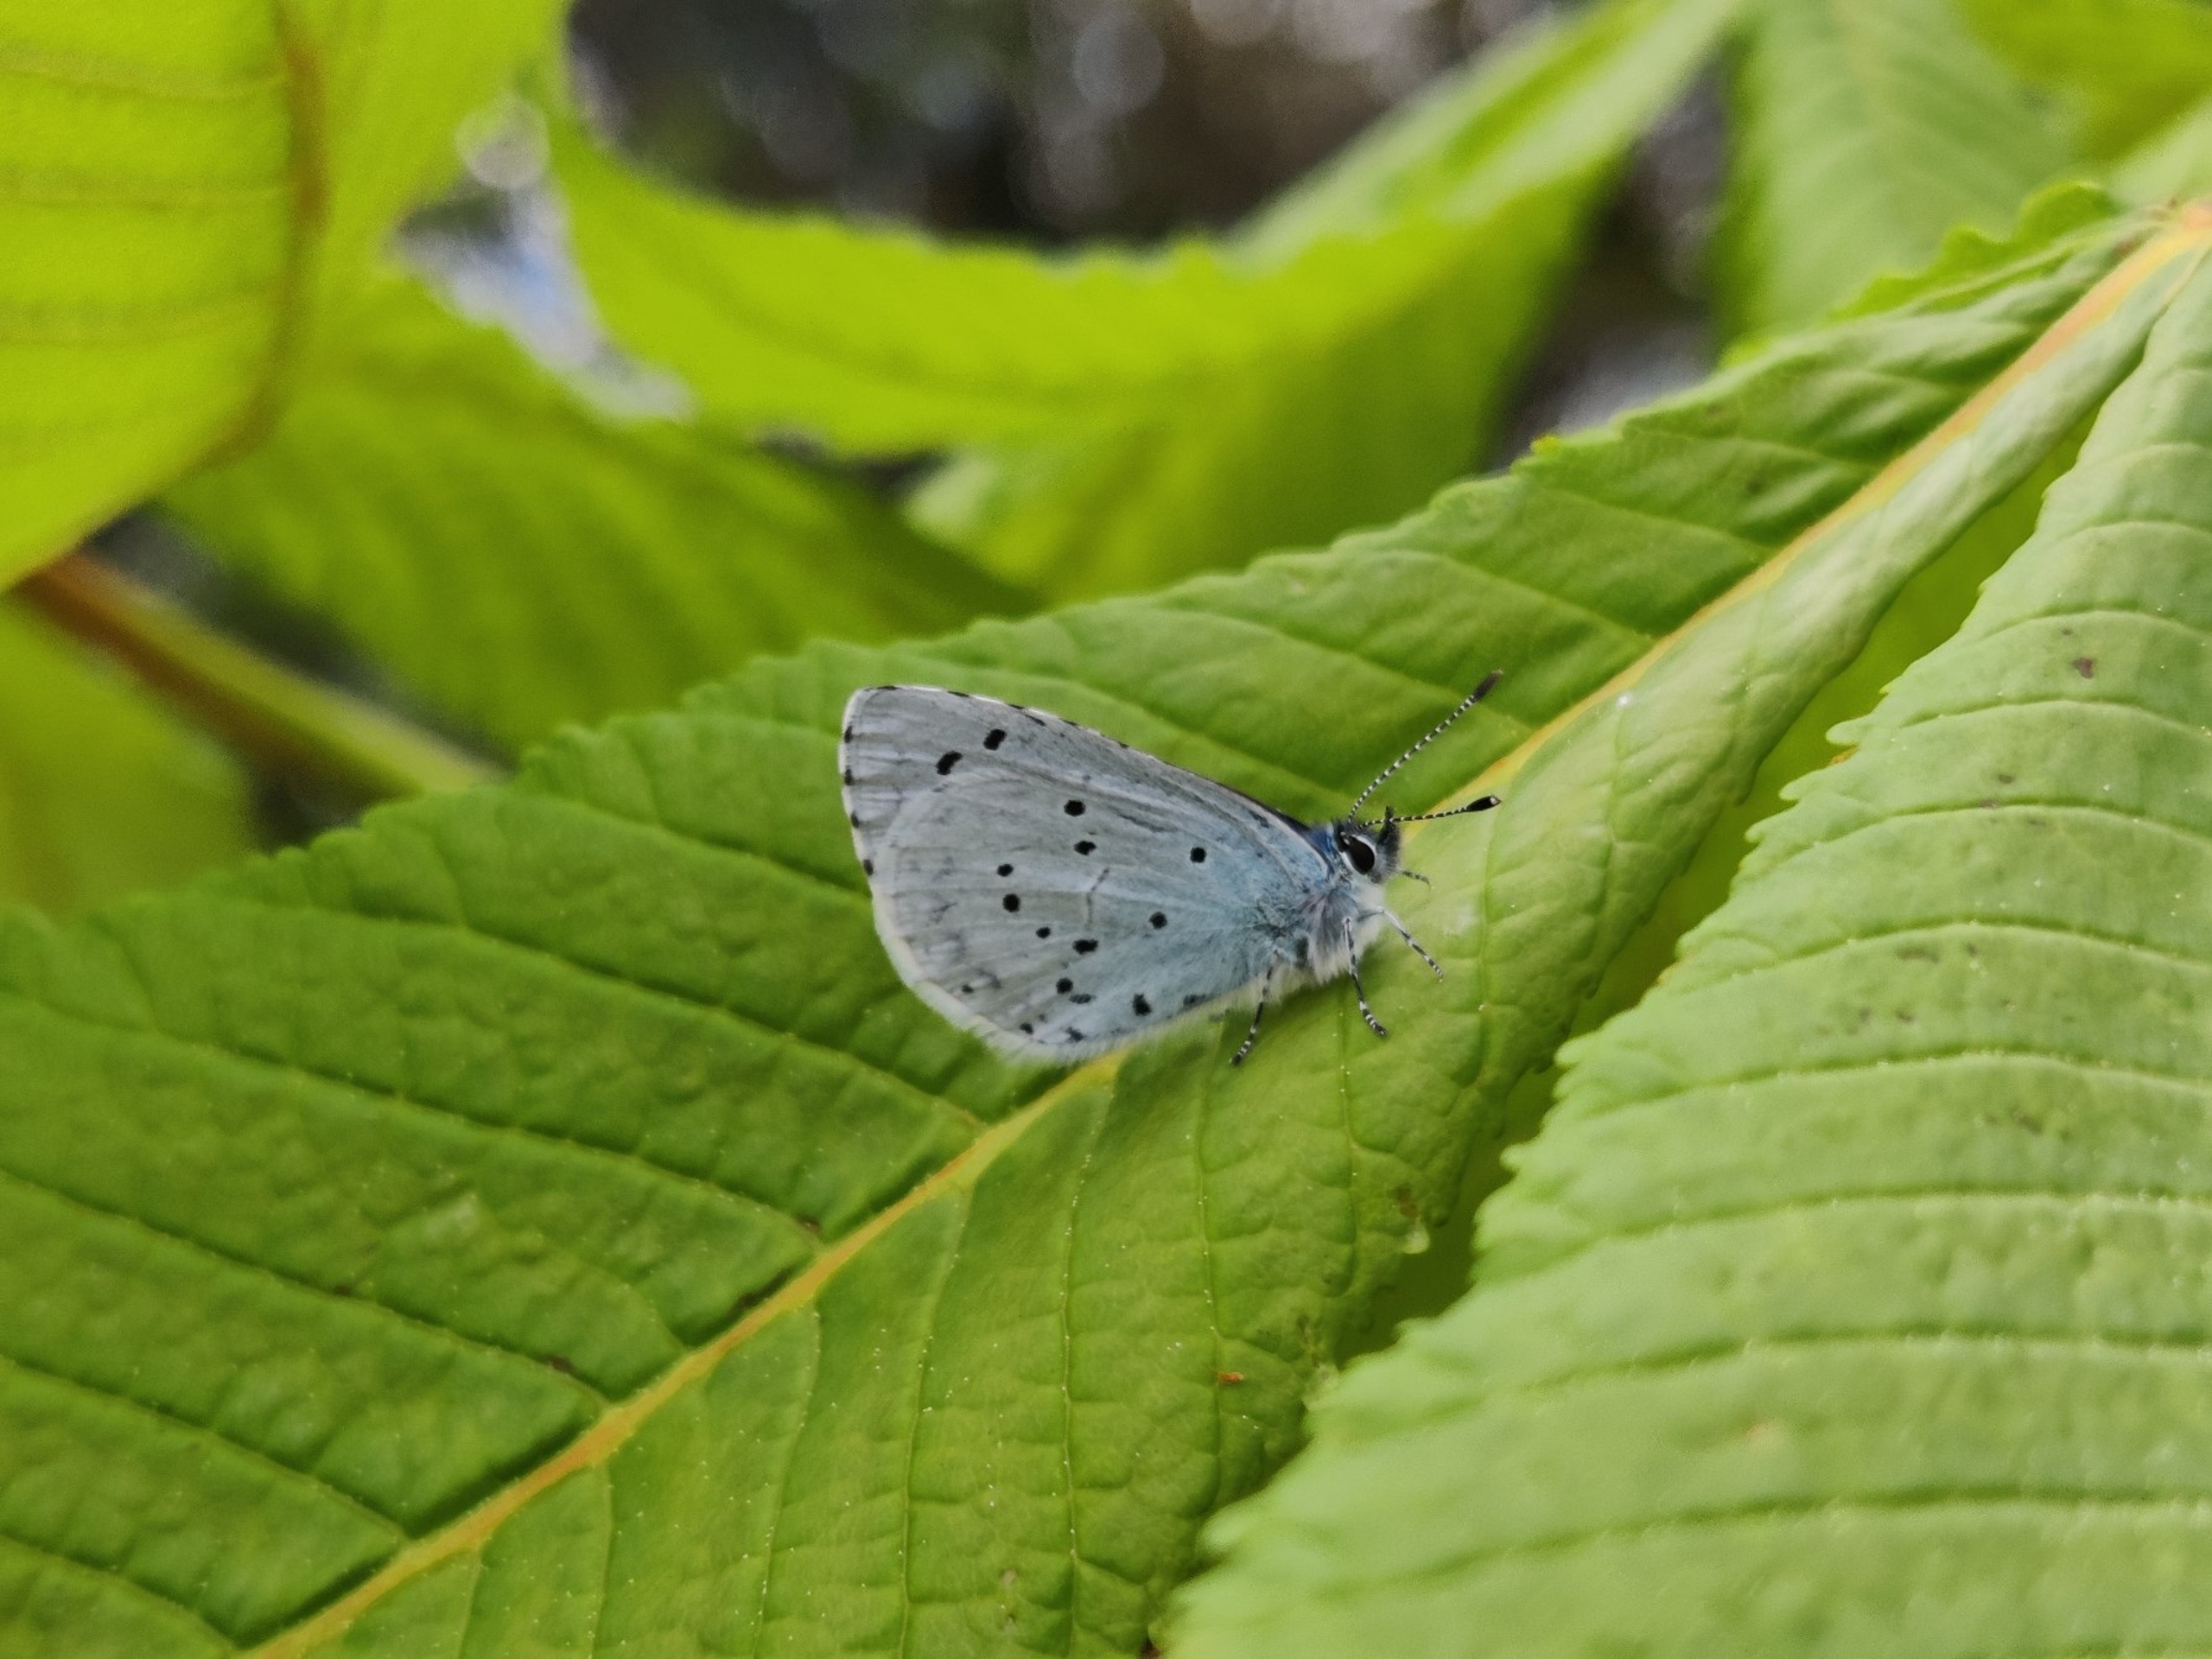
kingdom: Animalia
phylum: Arthropoda
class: Insecta
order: Lepidoptera
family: Lycaenidae
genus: Celastrina
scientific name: Celastrina argiolus
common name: Skovblåfugl
